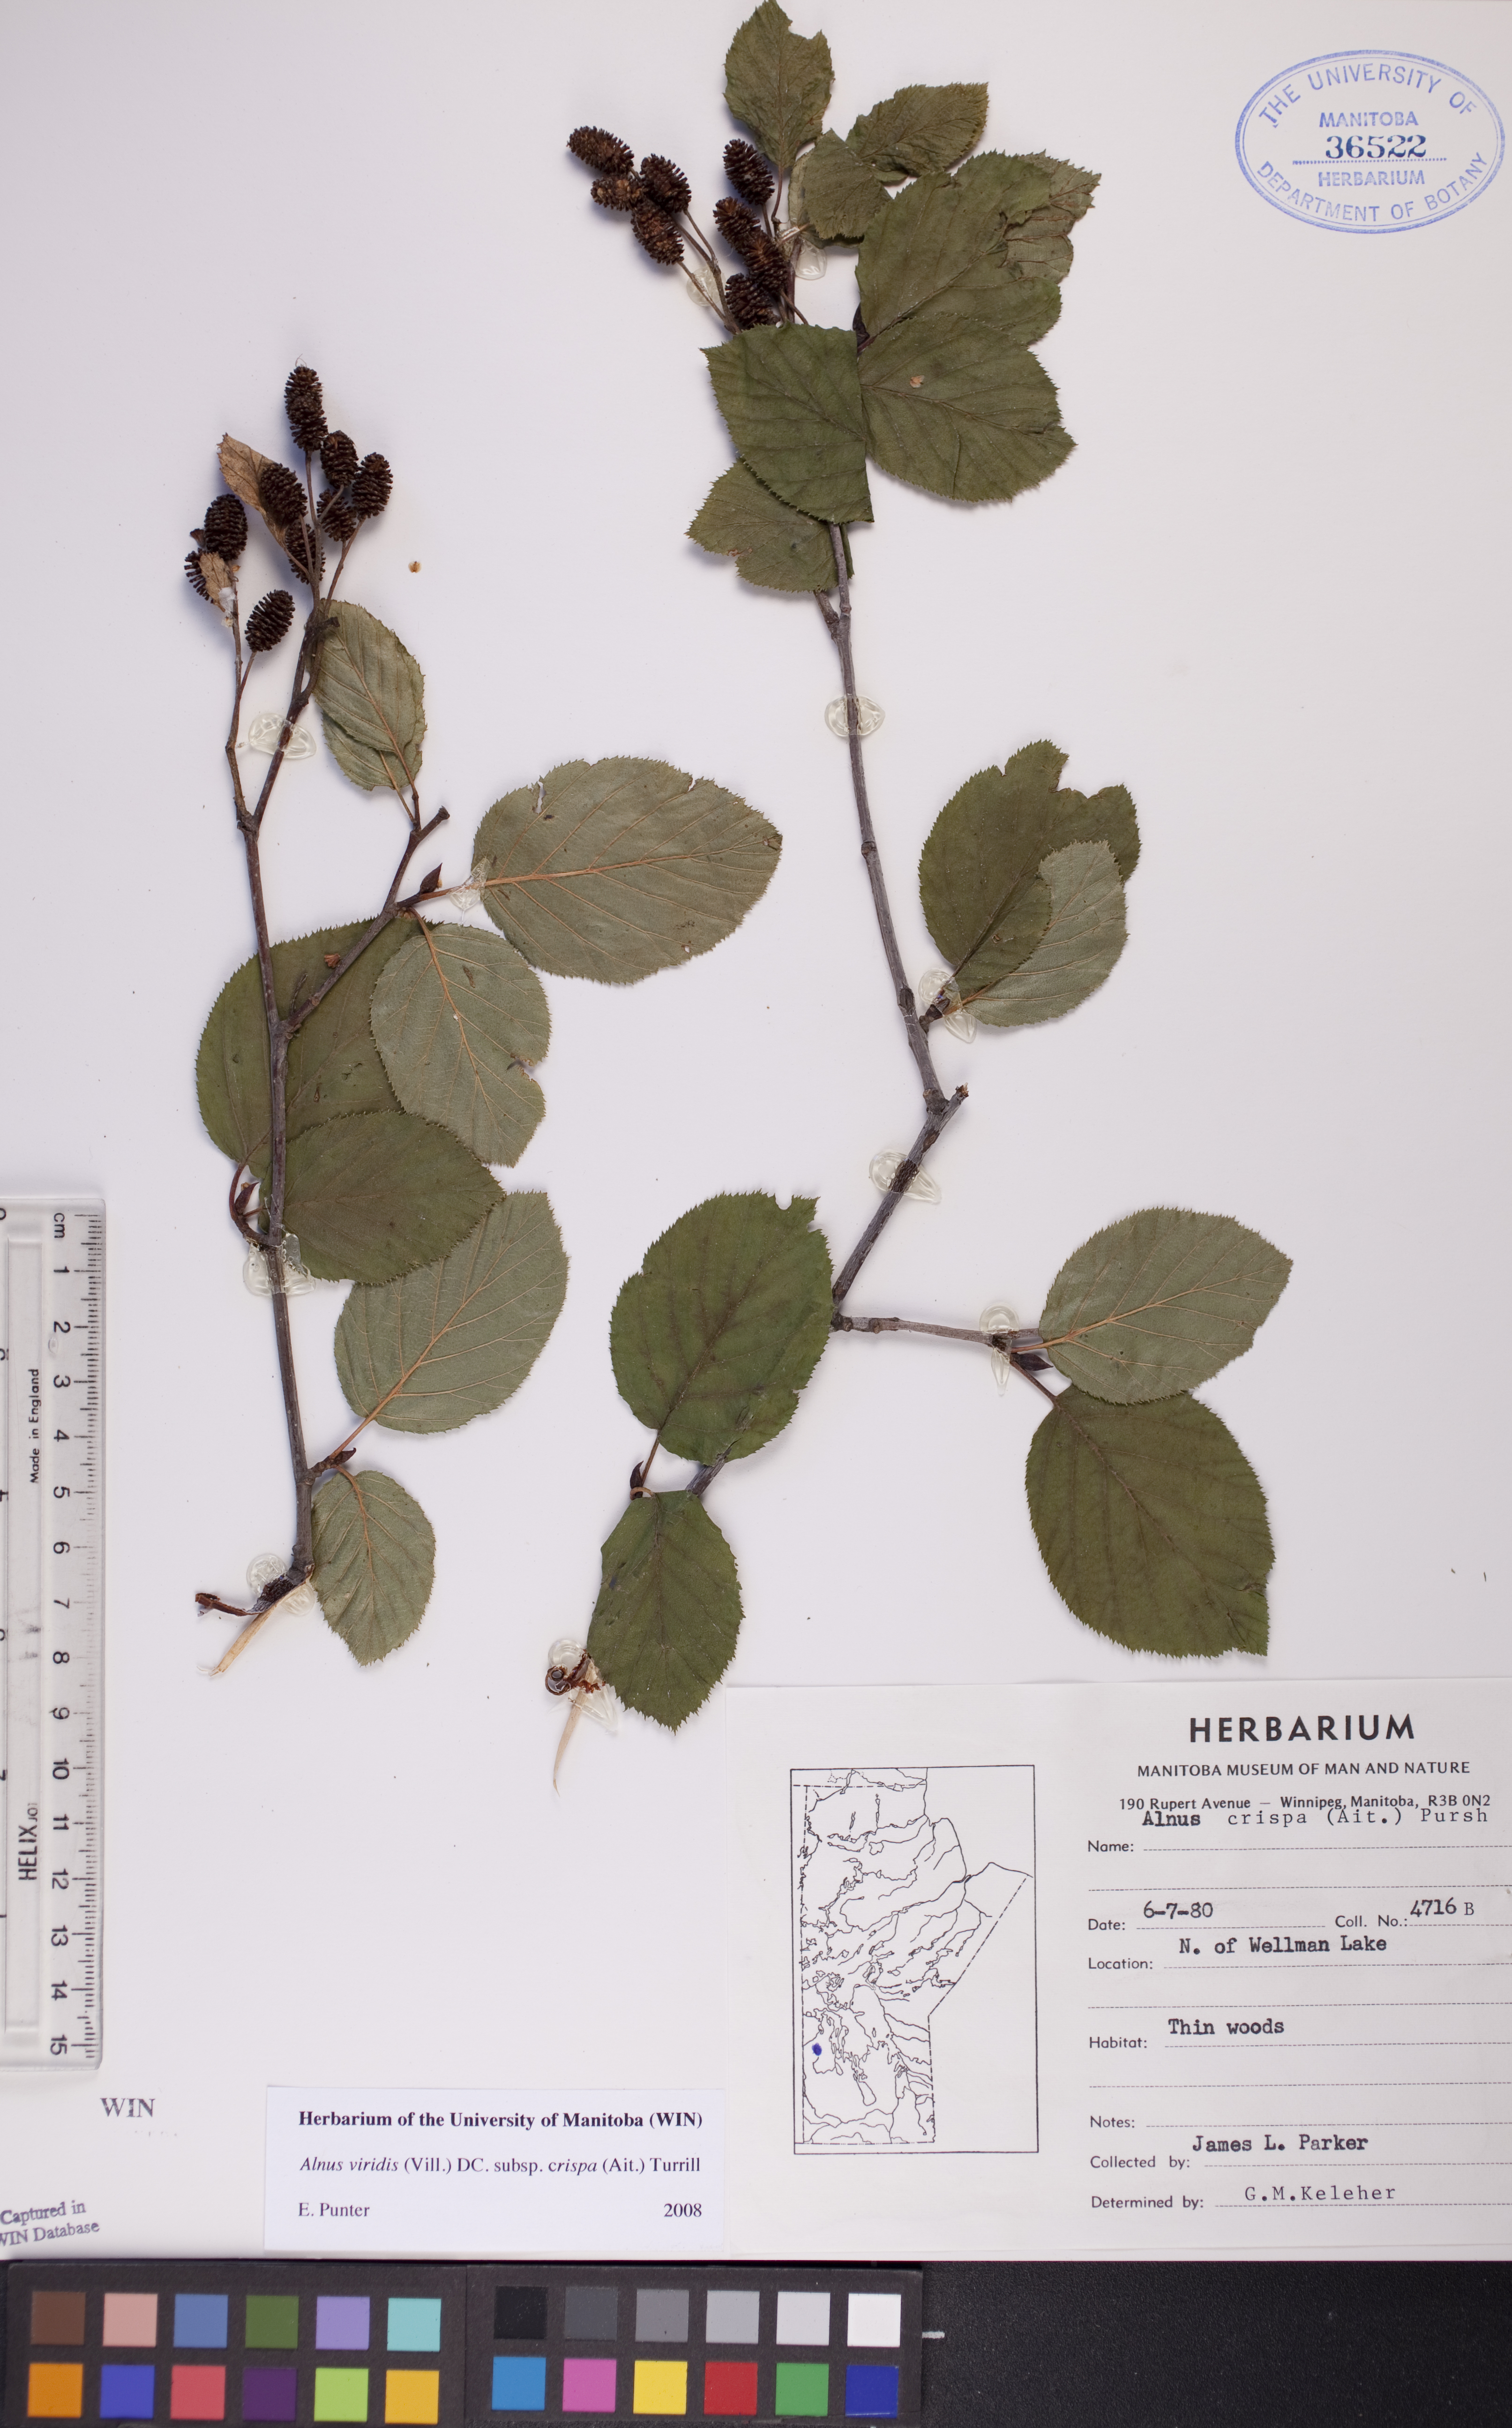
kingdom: Plantae
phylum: Tracheophyta
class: Magnoliopsida
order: Fagales
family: Betulaceae
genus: Alnus
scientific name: Alnus alnobetula
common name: Green alder
